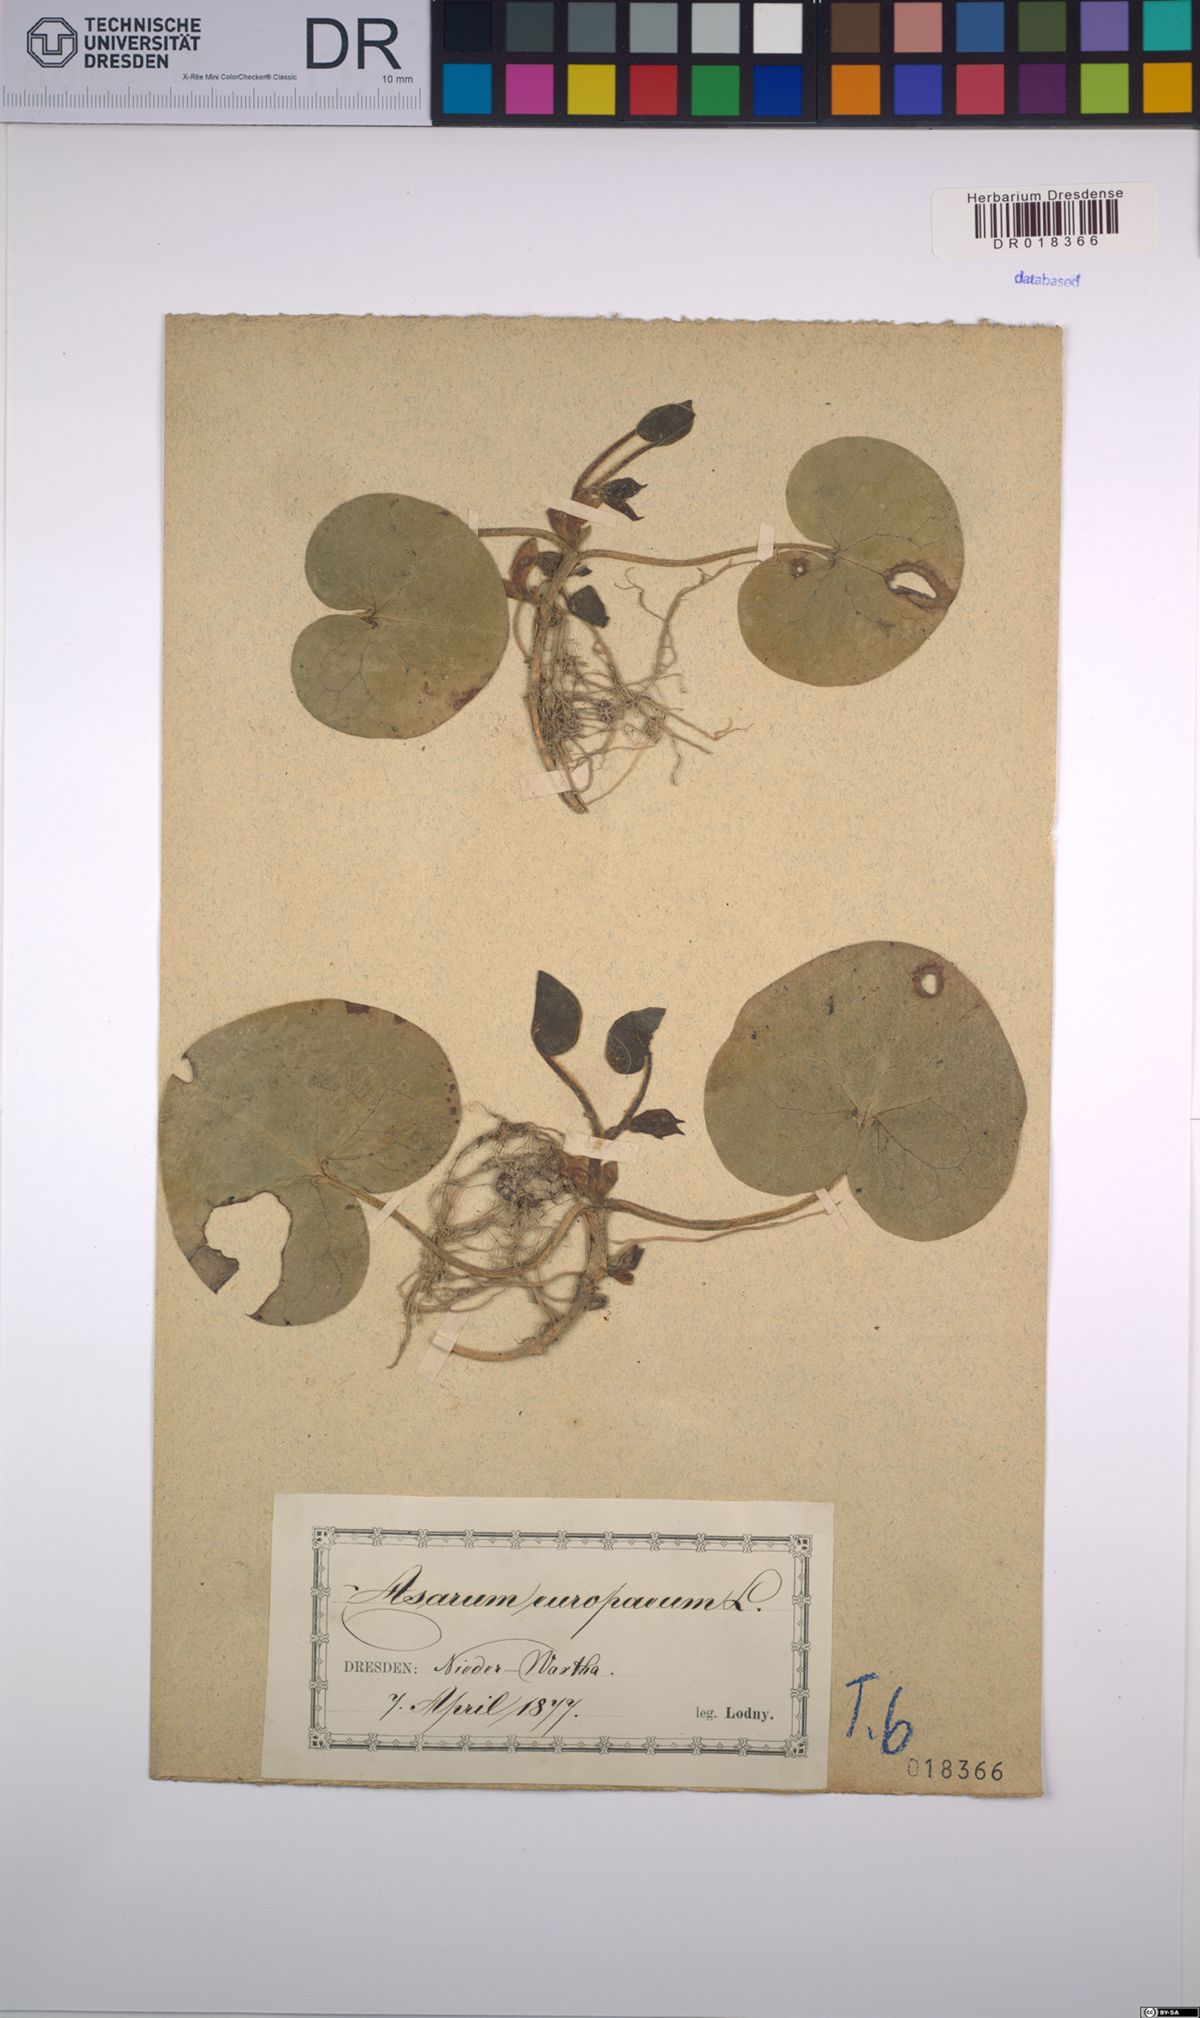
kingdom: Plantae
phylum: Tracheophyta
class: Magnoliopsida
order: Piperales
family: Aristolochiaceae
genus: Asarum
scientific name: Asarum europaeum
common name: Asarabacca
